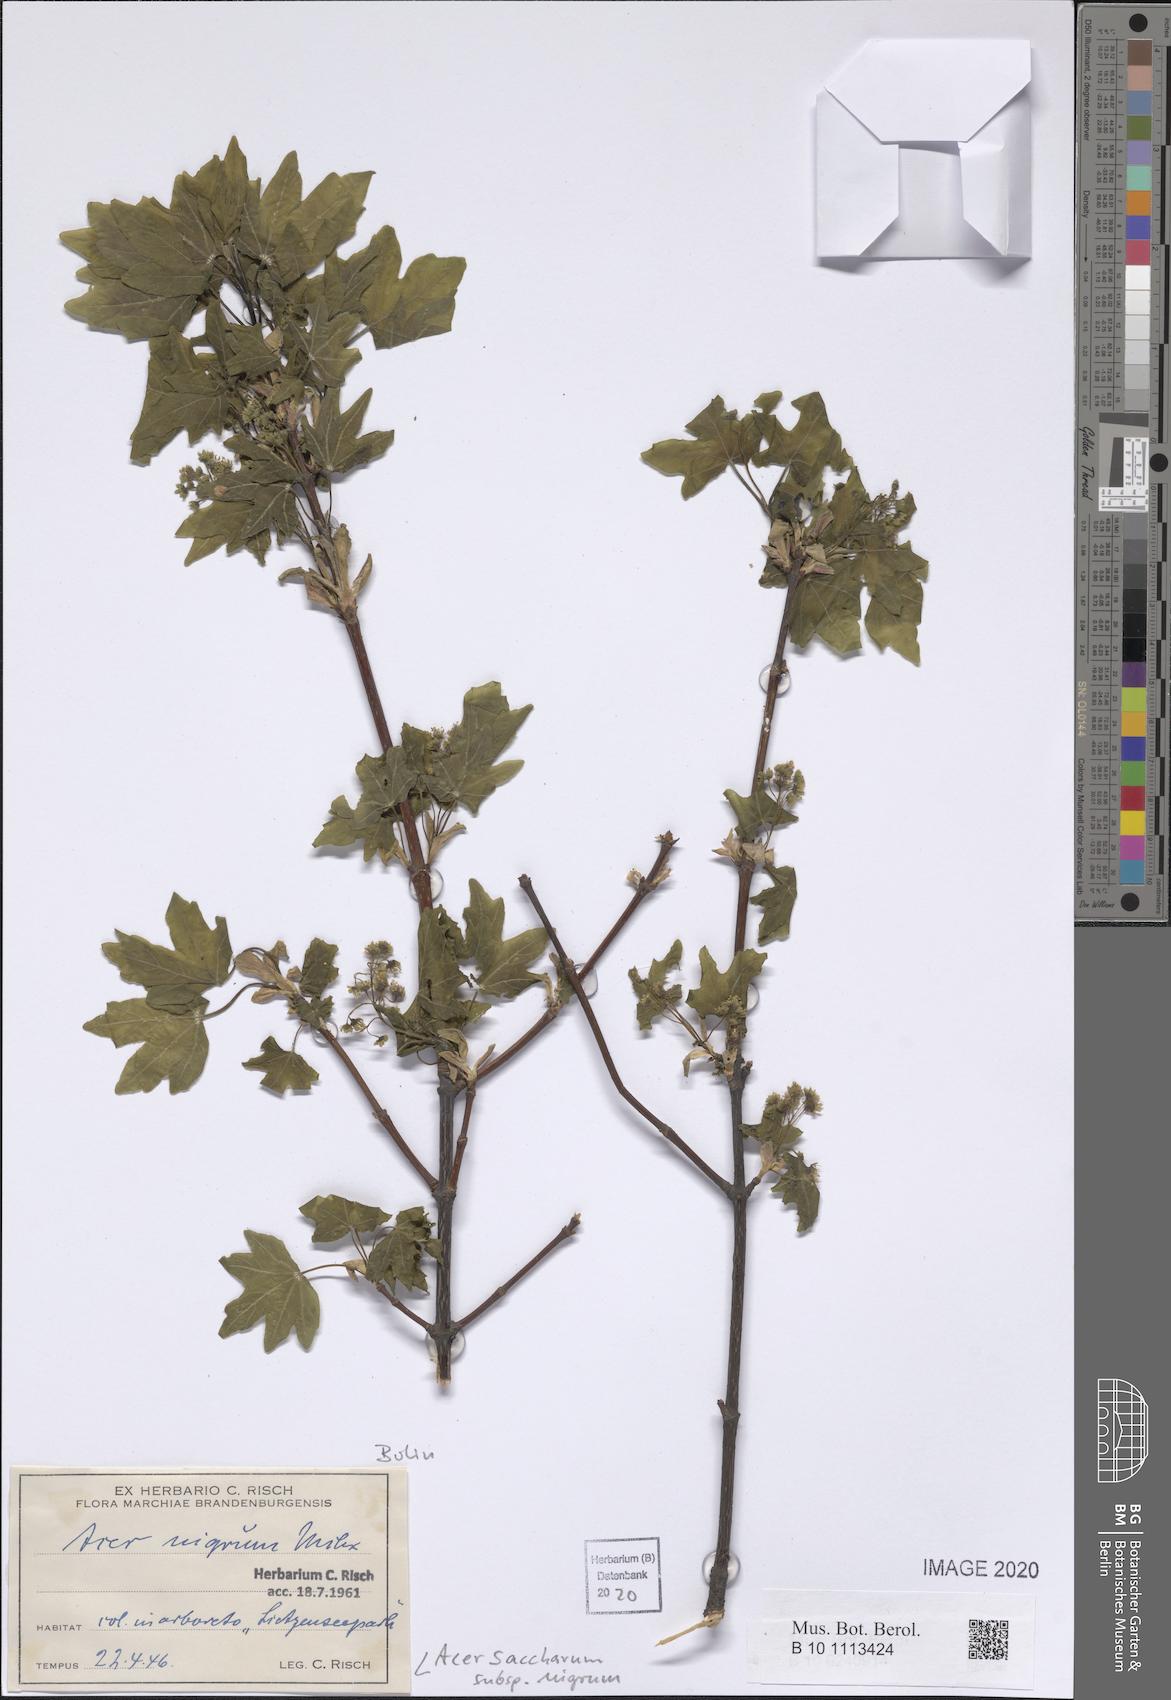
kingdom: Plantae
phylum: Tracheophyta
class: Magnoliopsida
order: Sapindales
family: Sapindaceae
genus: Acer
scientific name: Acer nigrum
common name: Black maple
